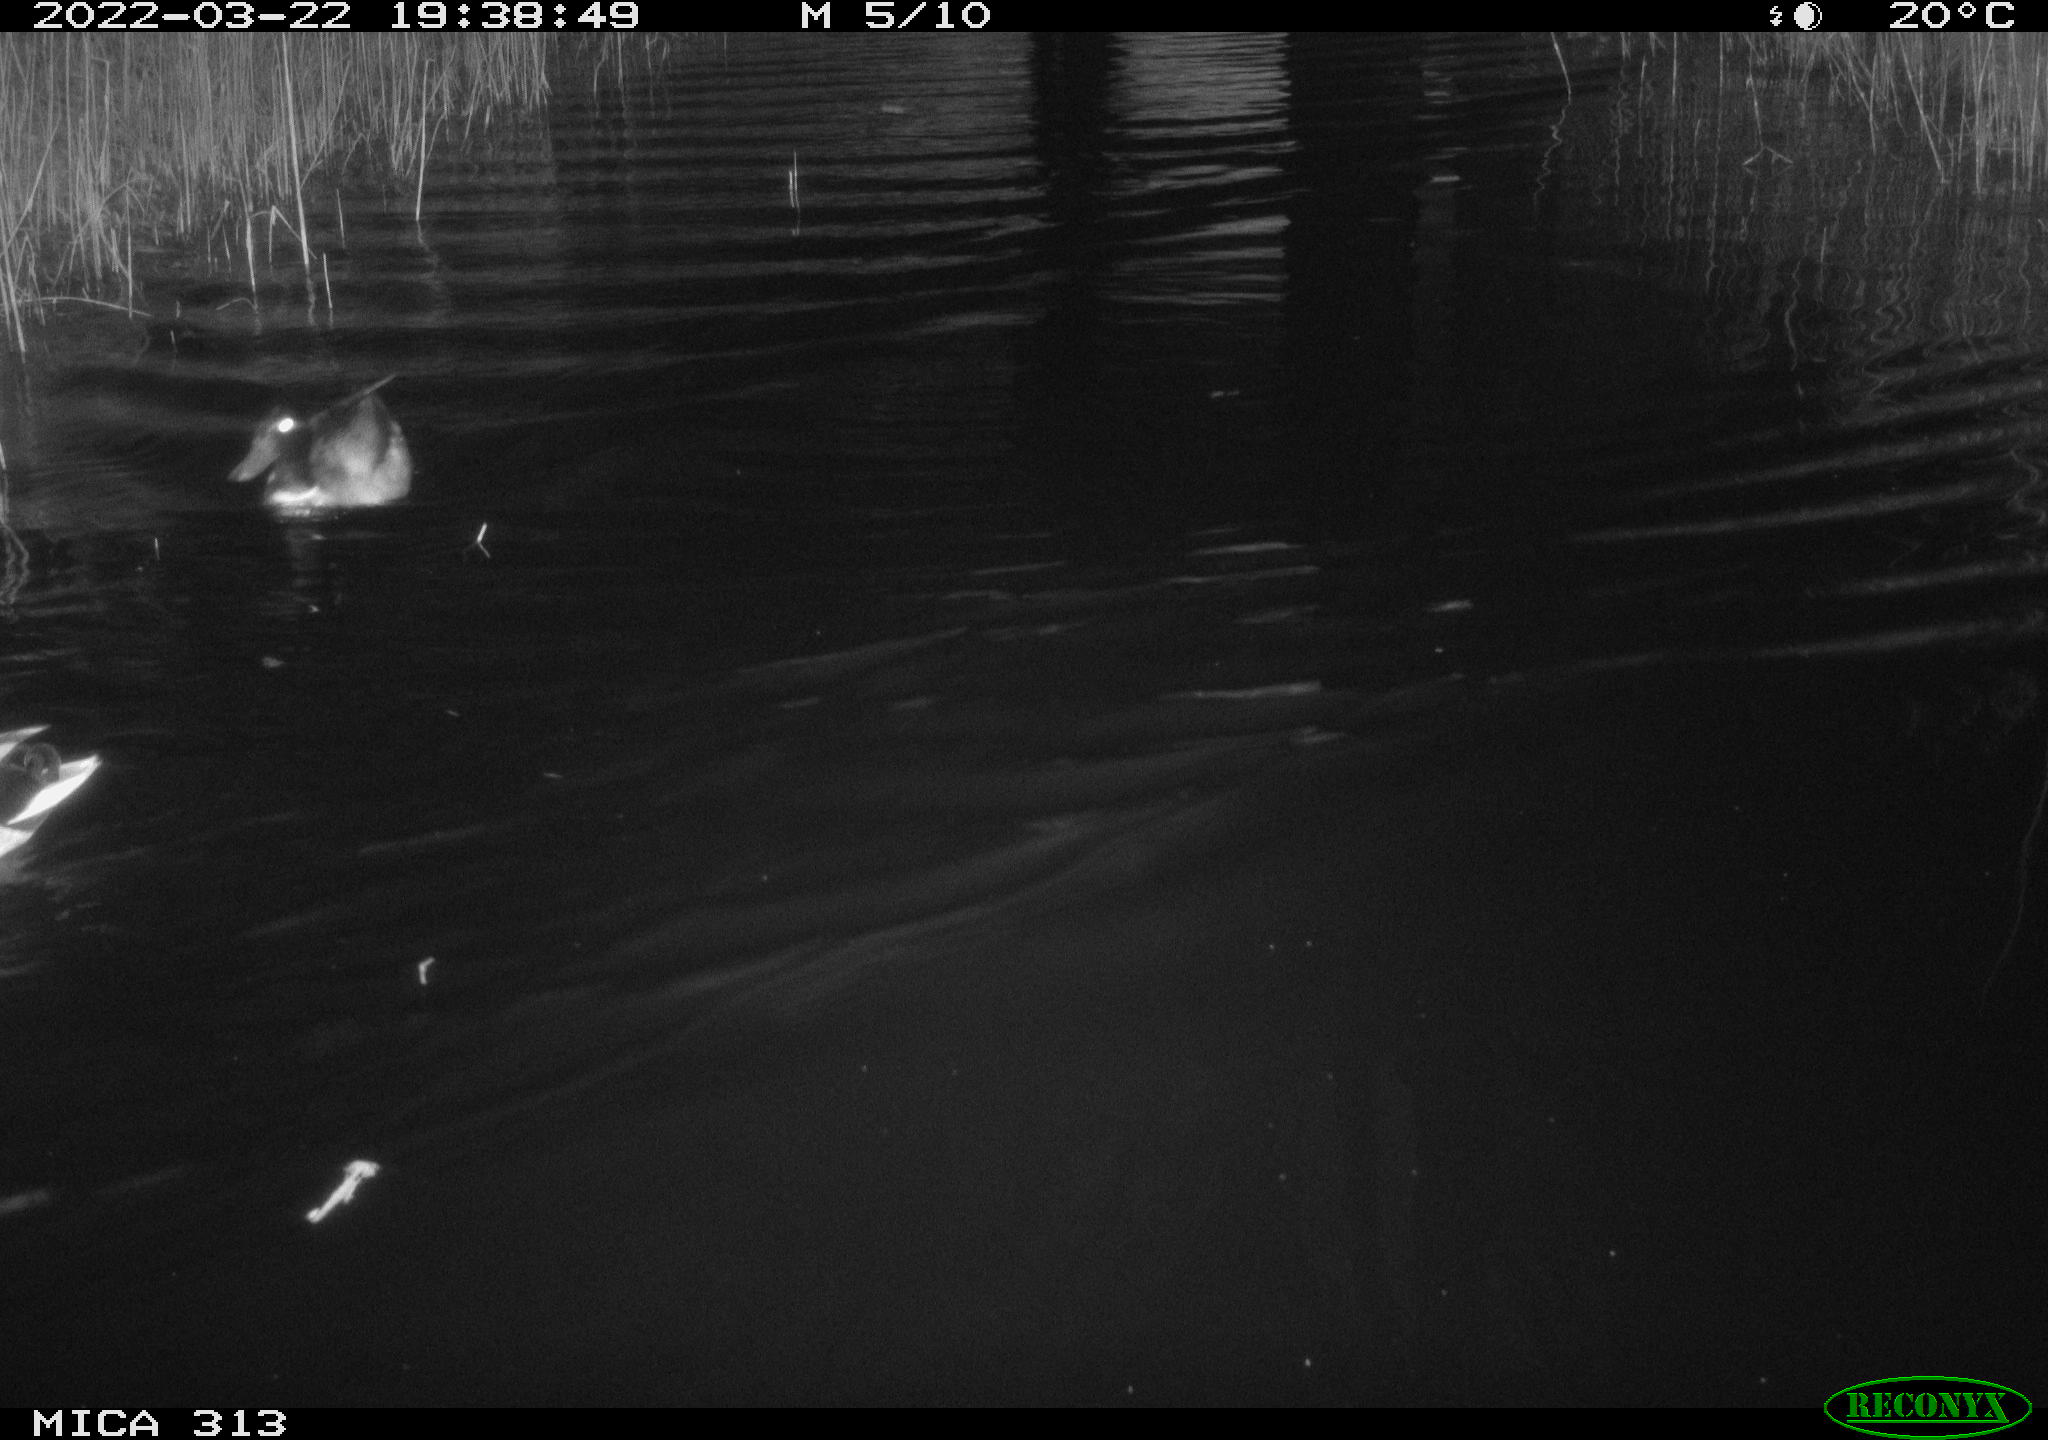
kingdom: Animalia
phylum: Chordata
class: Aves
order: Anseriformes
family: Anatidae
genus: Anas
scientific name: Anas platyrhynchos
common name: Mallard
